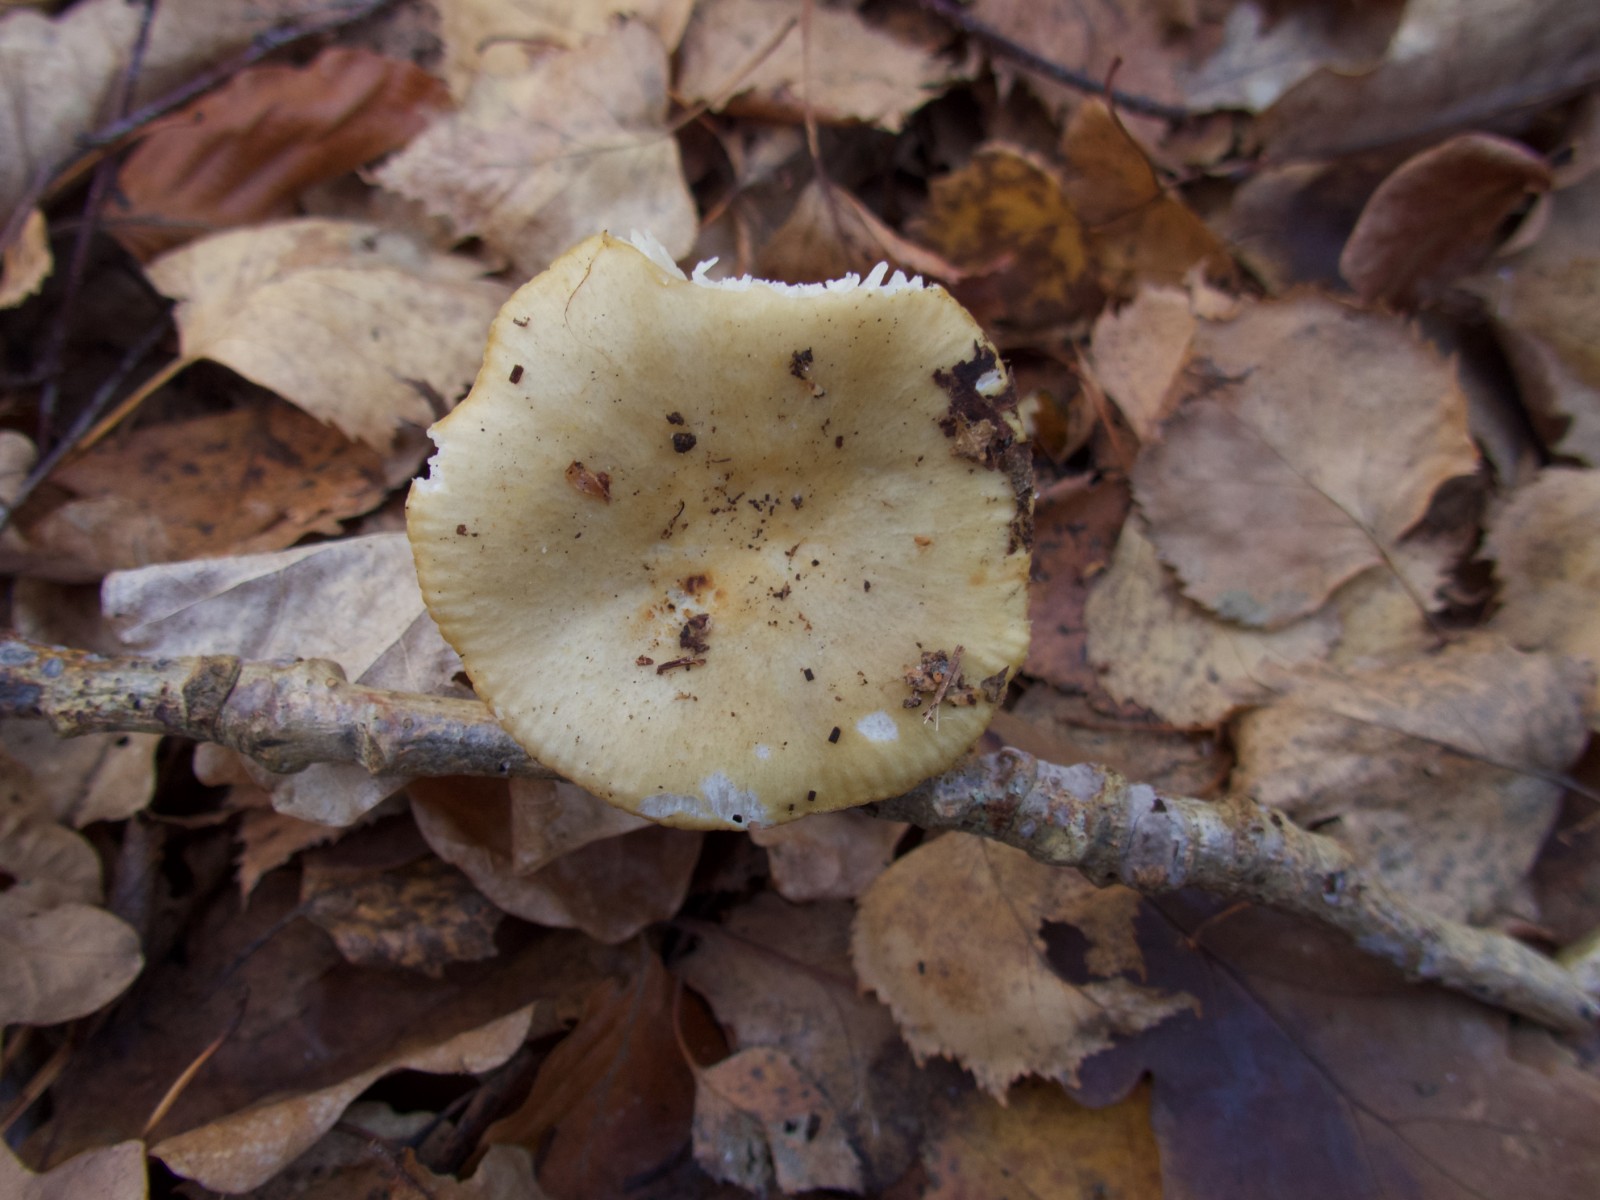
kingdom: Fungi
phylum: Basidiomycota
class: Agaricomycetes
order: Russulales
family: Russulaceae
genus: Russula
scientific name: Russula ochroleuca
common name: okkergul skørhat
